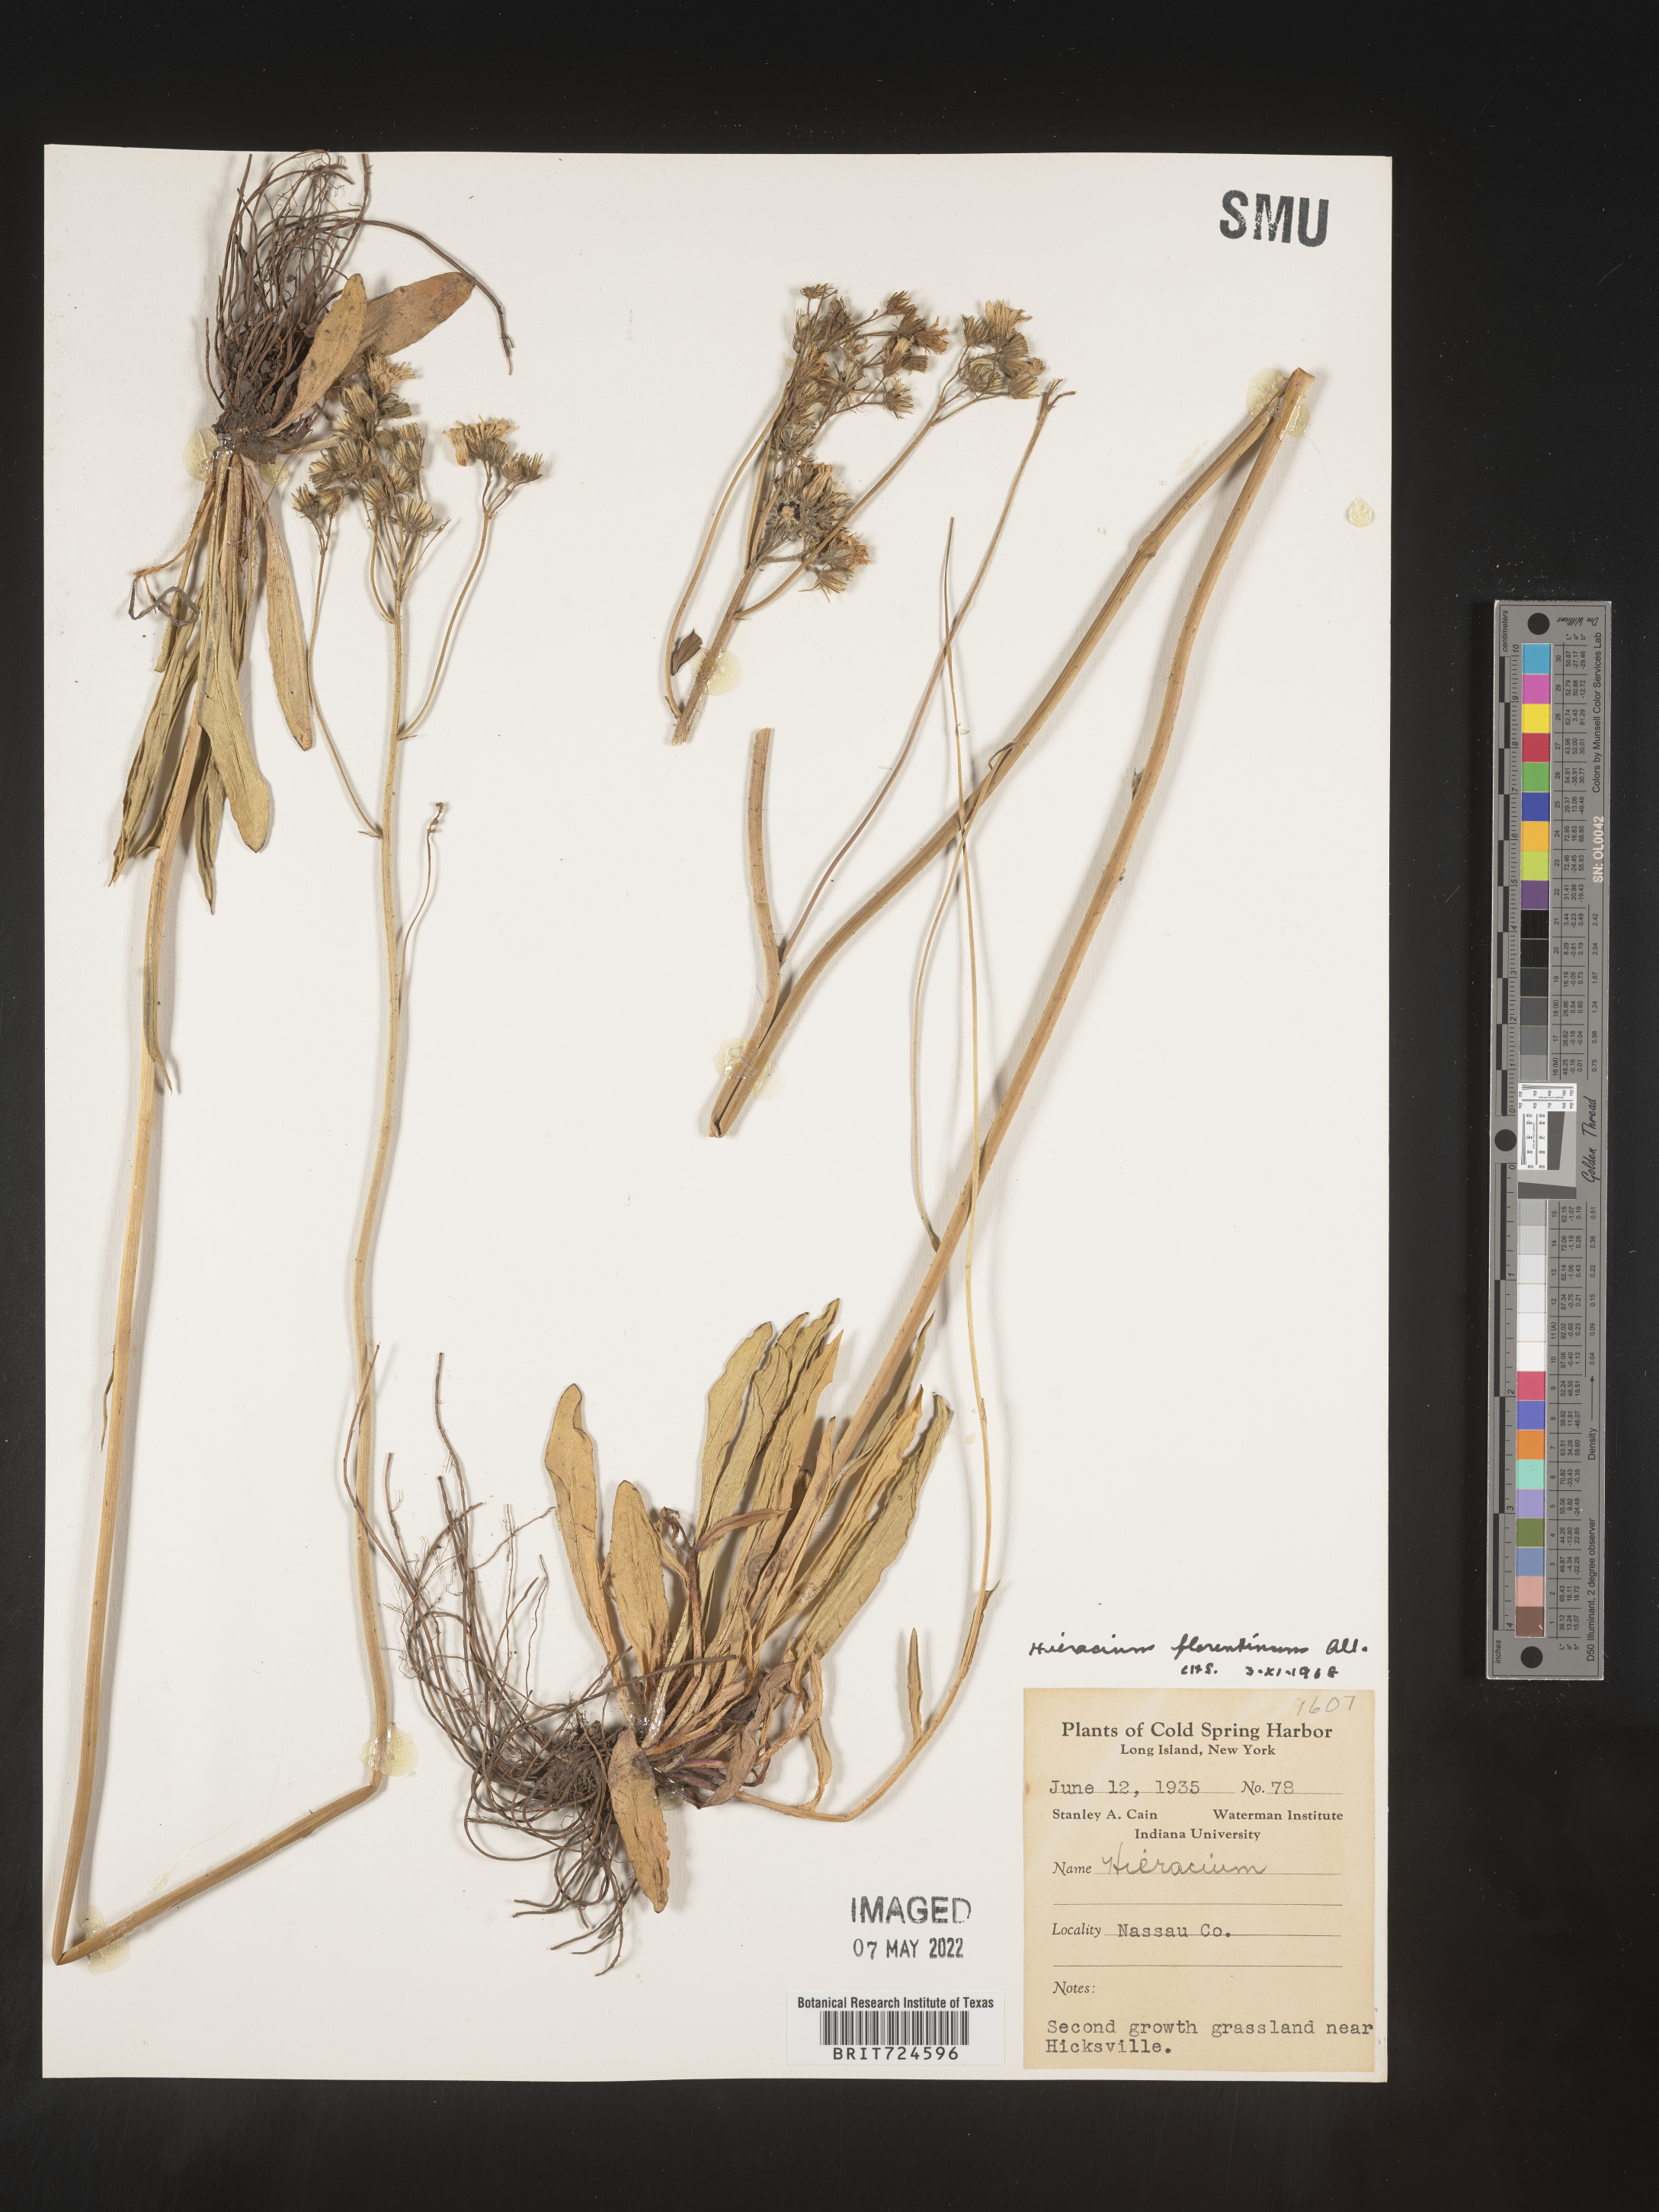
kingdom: Plantae
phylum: Tracheophyta
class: Magnoliopsida
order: Asterales
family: Asteraceae
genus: Pilosella
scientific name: Pilosella piloselloides
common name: Glaucous king-devil
